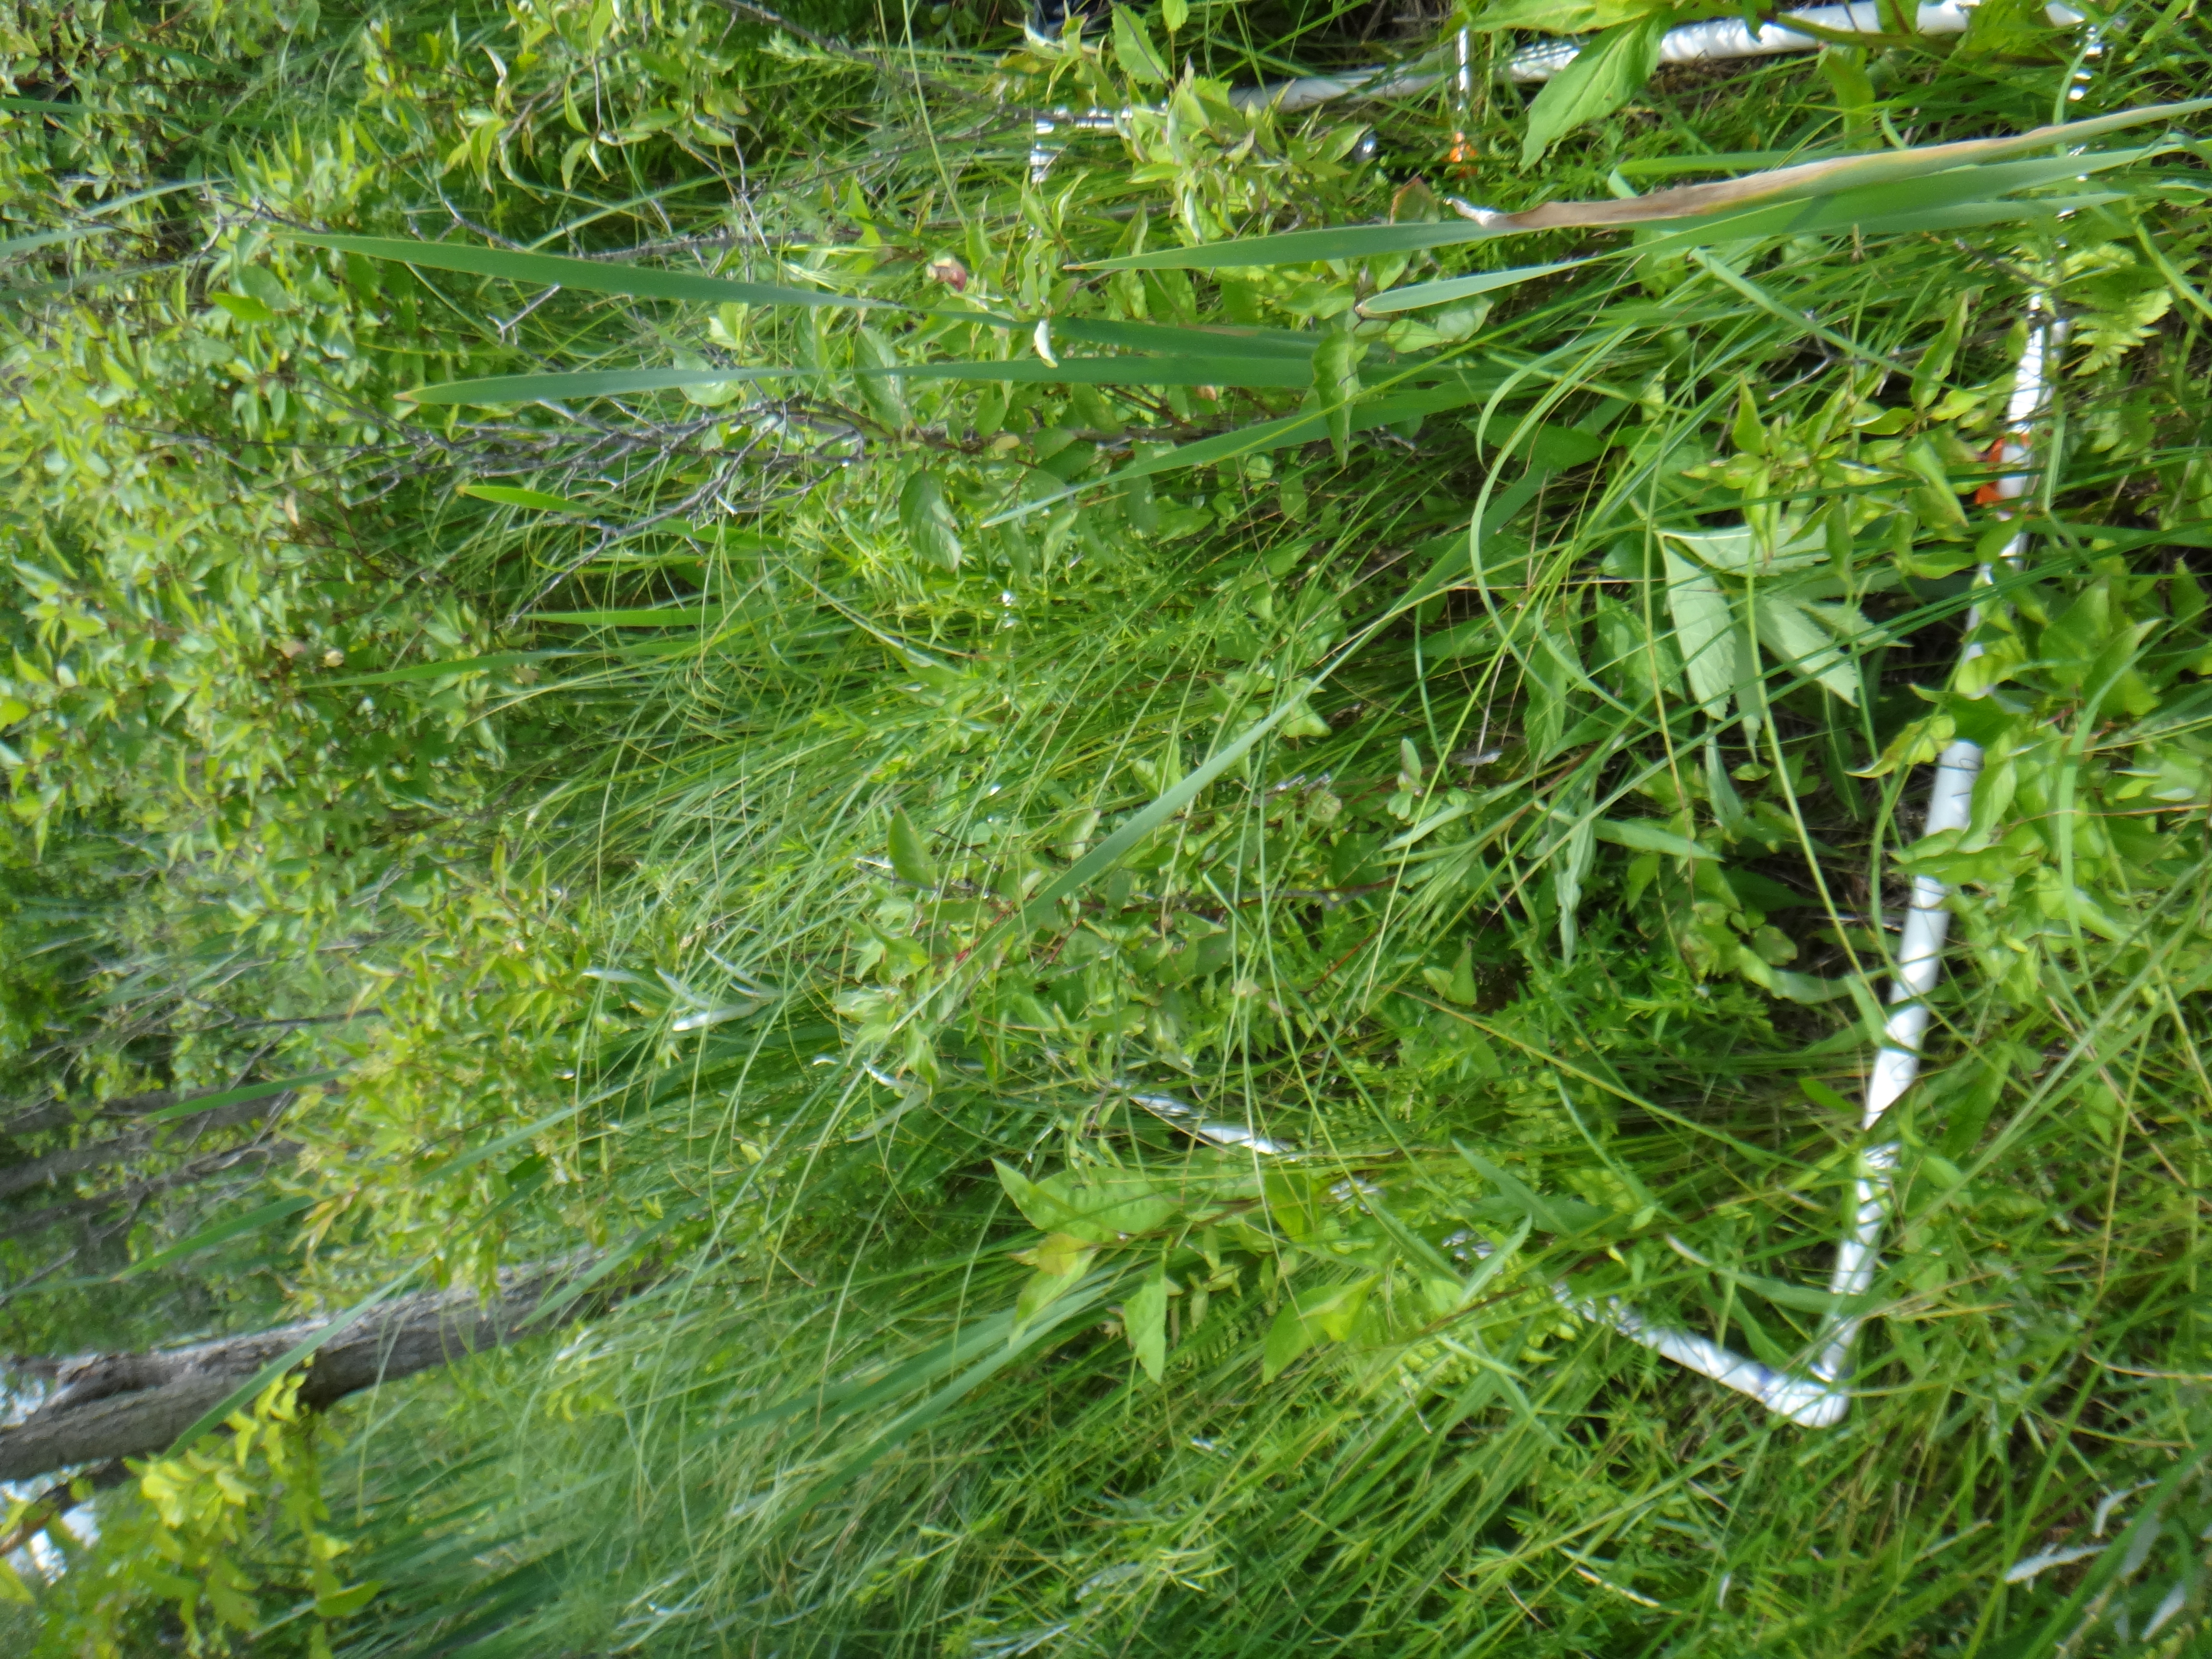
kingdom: Plantae
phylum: Tracheophyta
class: Magnoliopsida
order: Lamiales
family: Lamiaceae
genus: Pycnanthemum
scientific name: Pycnanthemum virginianum
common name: Virginia mountain-mint
